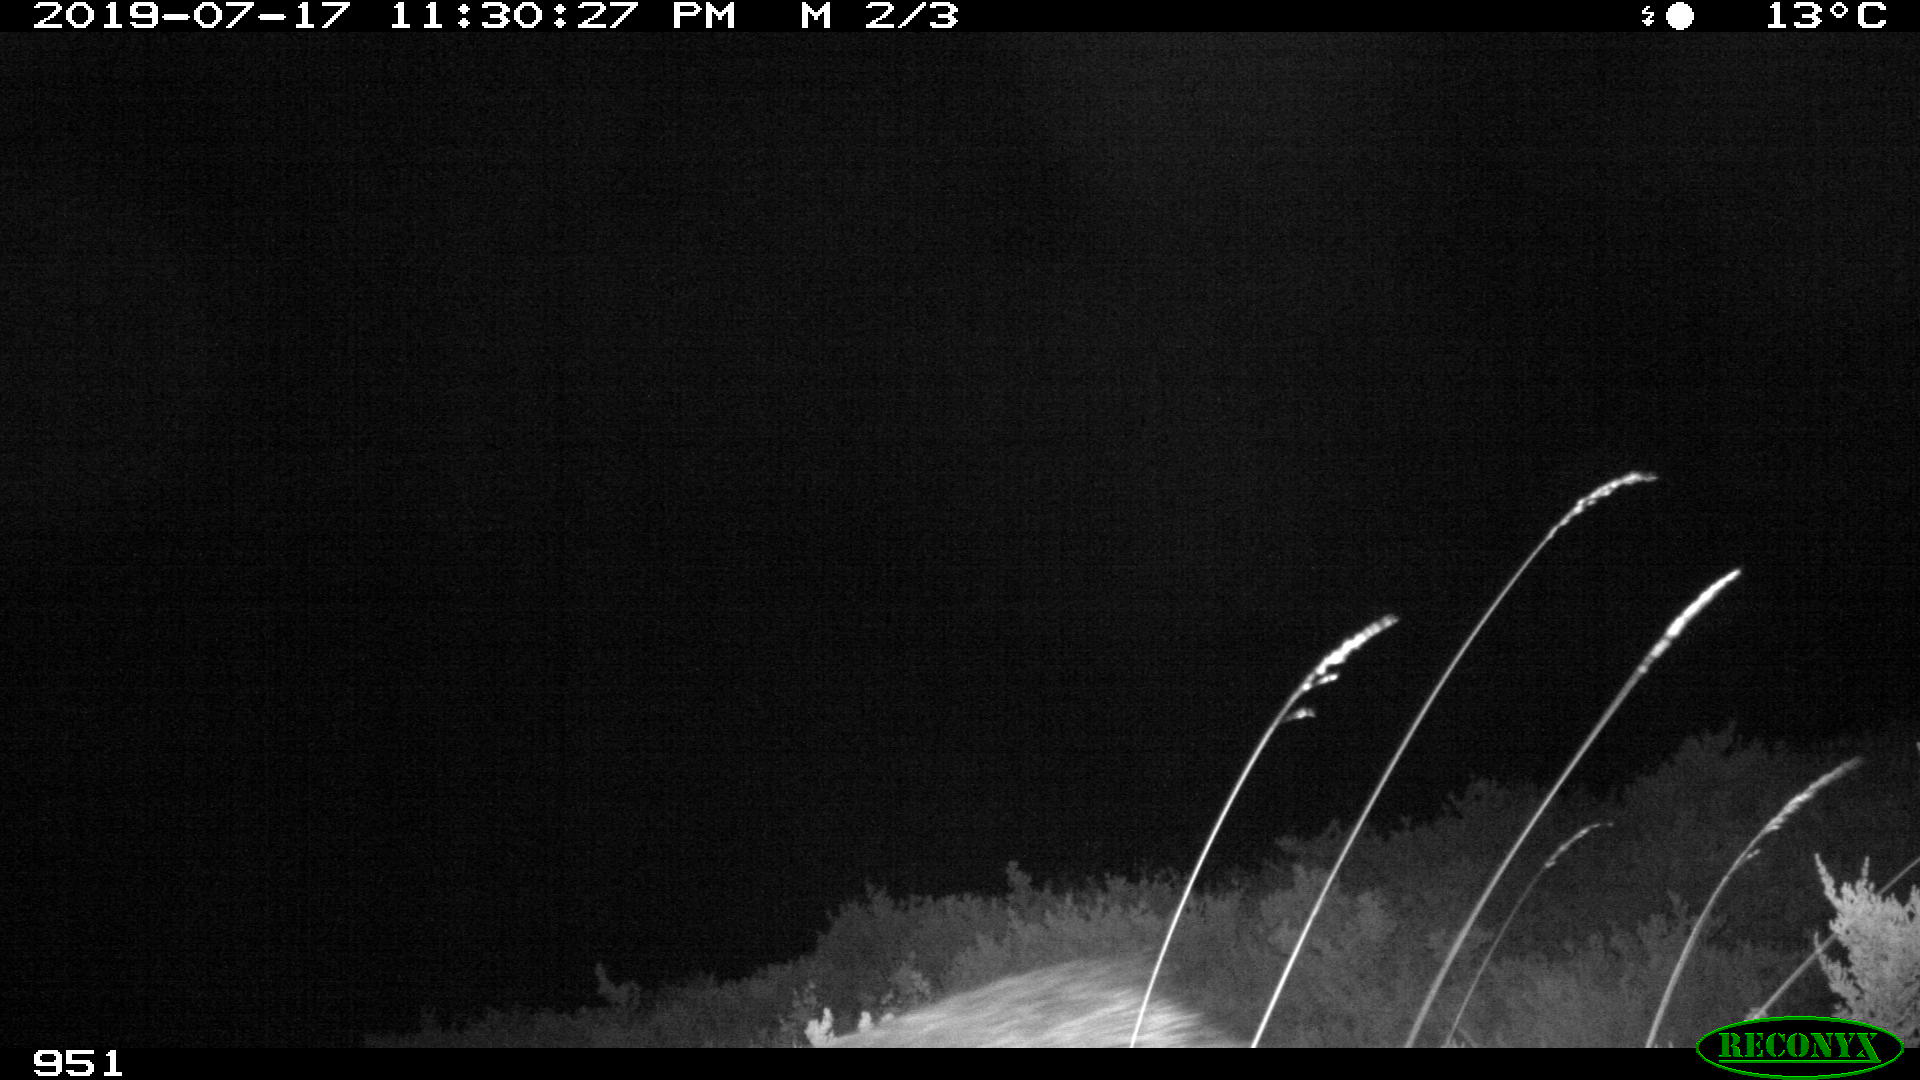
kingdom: Animalia
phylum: Chordata
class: Mammalia
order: Artiodactyla
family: Suidae
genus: Sus
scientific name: Sus scrofa
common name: Wild boar
